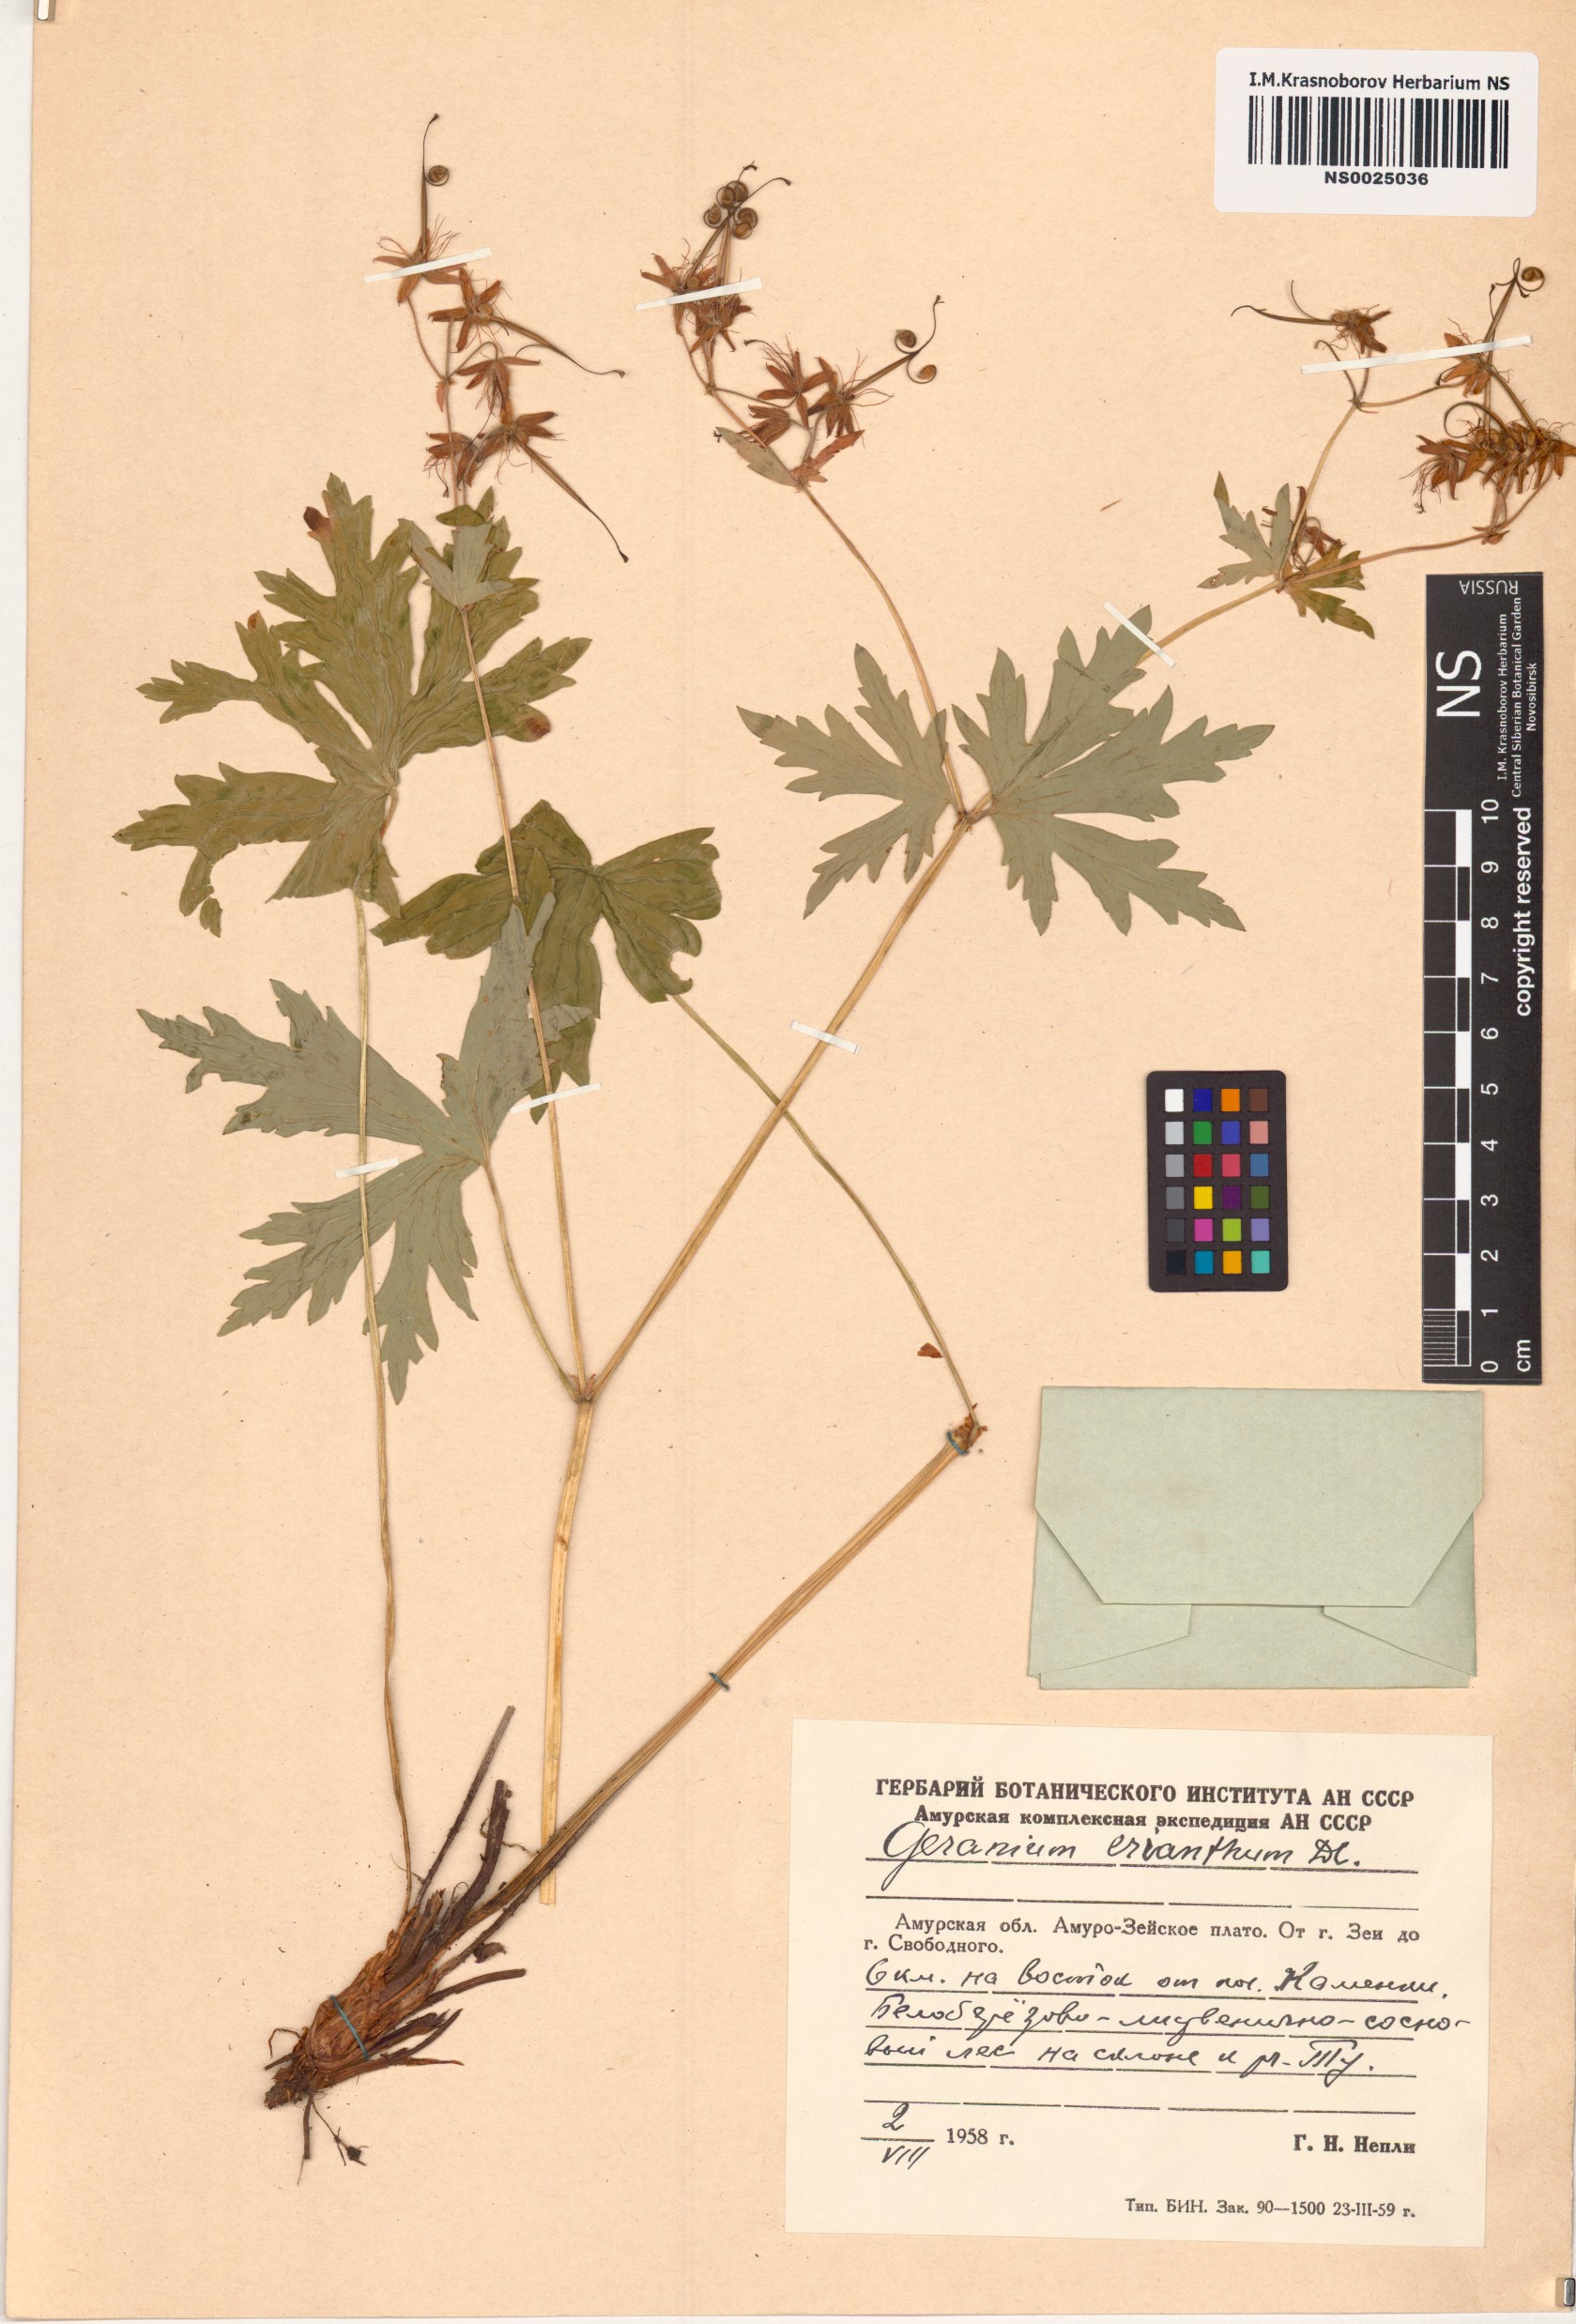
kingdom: Plantae
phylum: Tracheophyta
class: Magnoliopsida
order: Geraniales
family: Geraniaceae
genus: Geranium
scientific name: Geranium erianthum
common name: Northern crane's-bill
